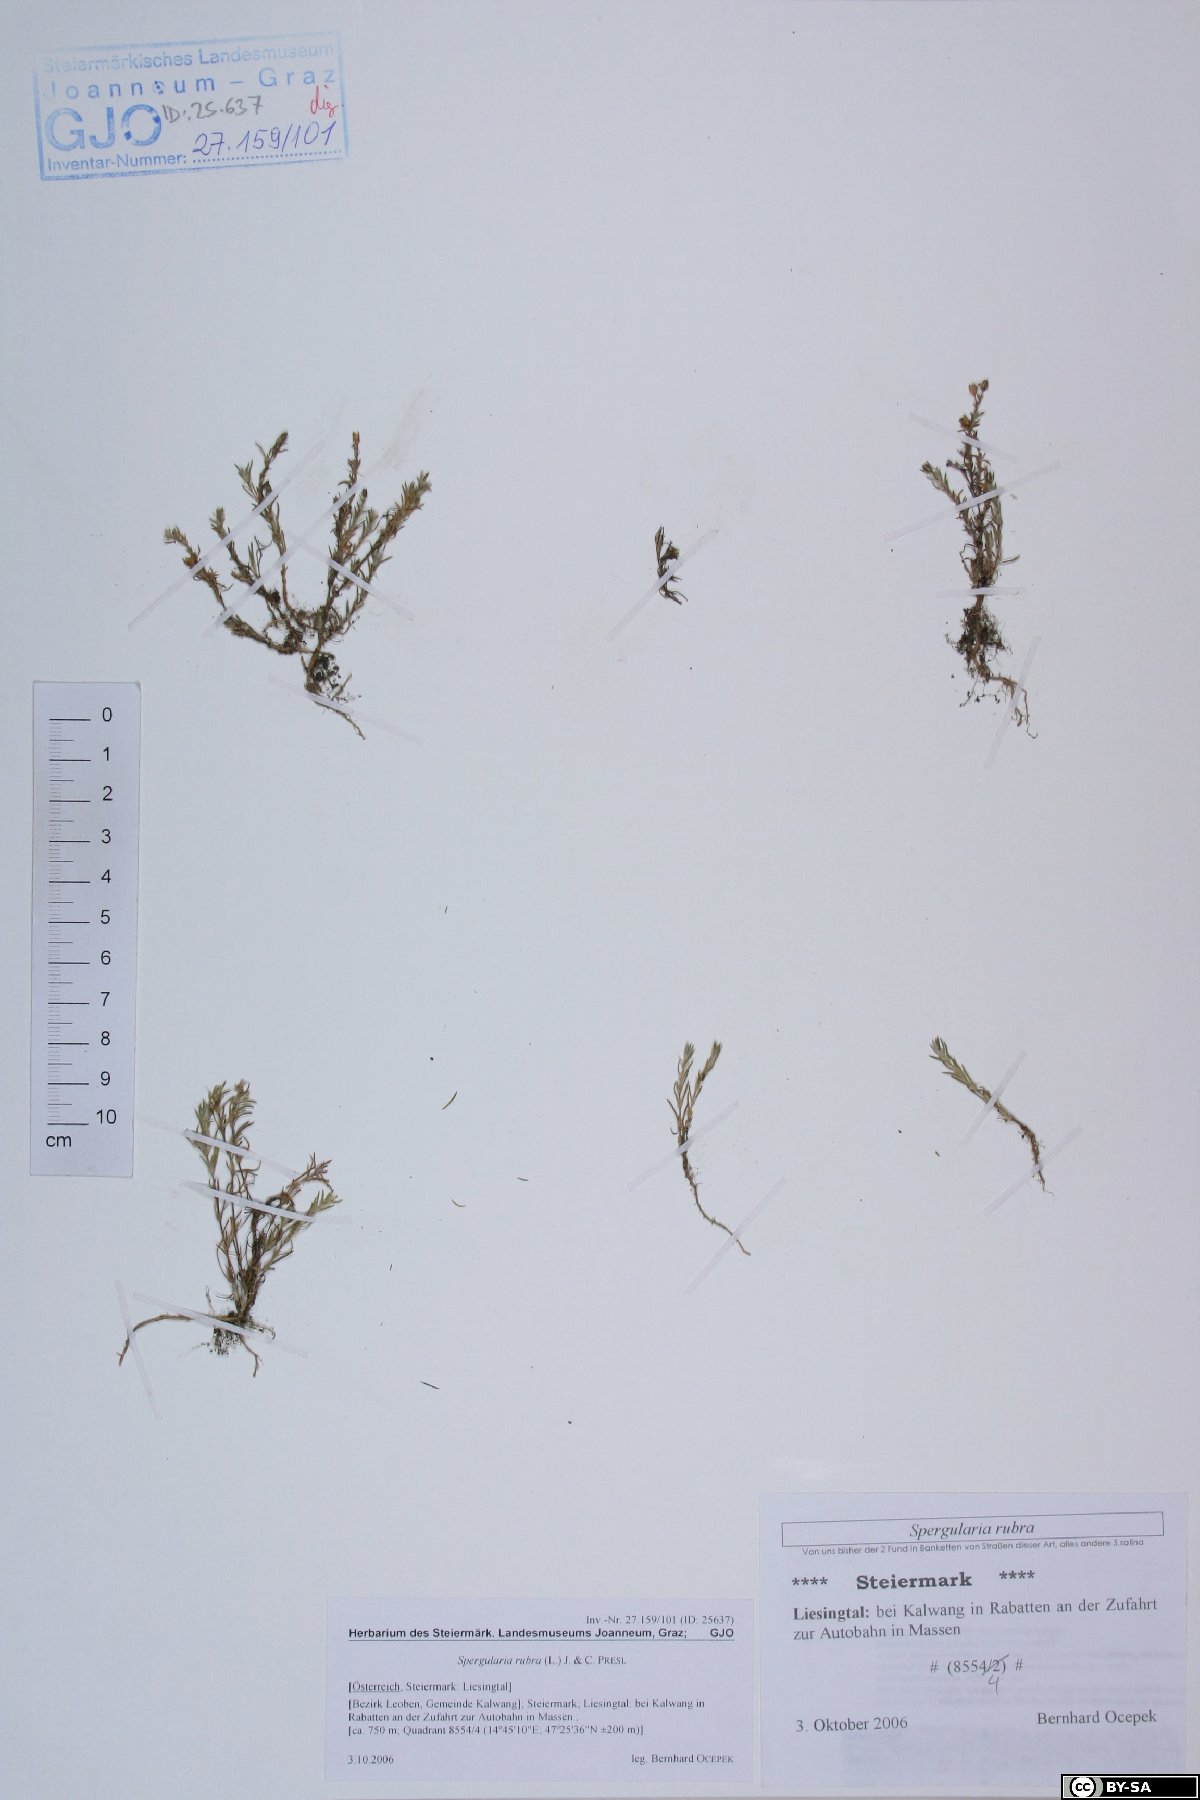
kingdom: Plantae
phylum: Tracheophyta
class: Magnoliopsida
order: Caryophyllales
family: Caryophyllaceae
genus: Spergularia
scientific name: Spergularia rubra
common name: Red sand-spurrey
